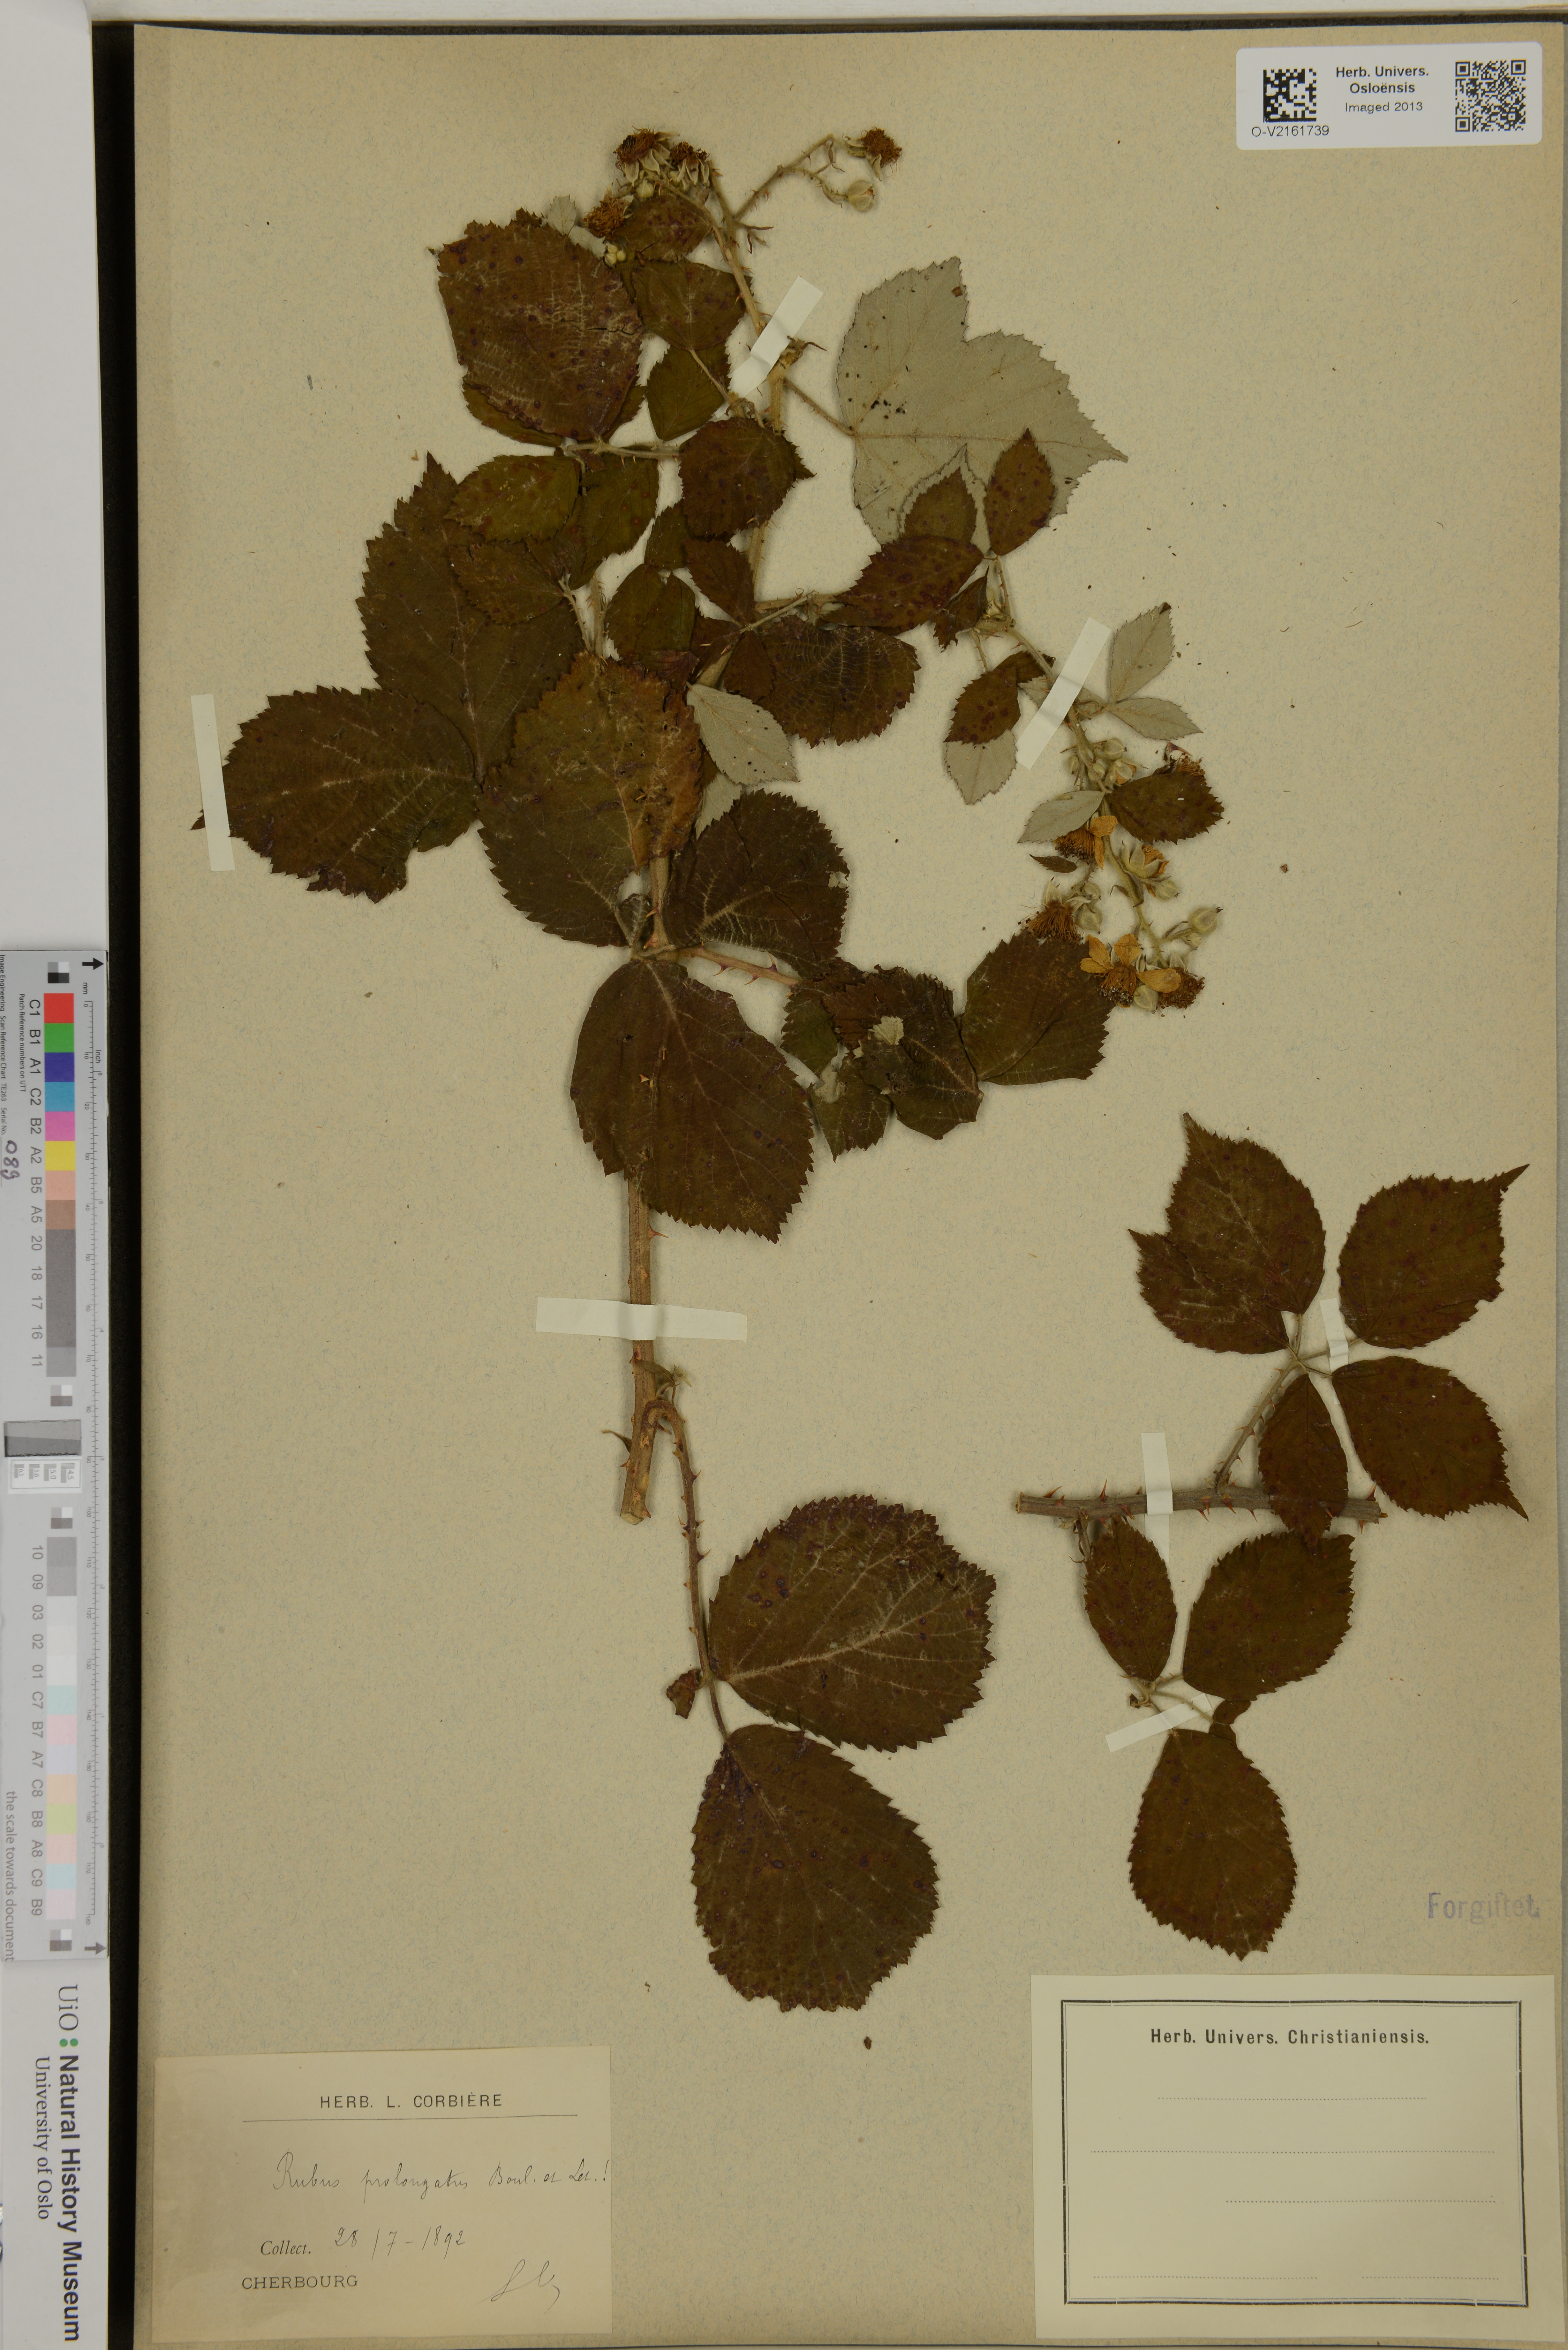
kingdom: Plantae
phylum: Tracheophyta
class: Magnoliopsida
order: Rosales
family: Rosaceae
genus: Rubus
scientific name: Rubus prolongatus
